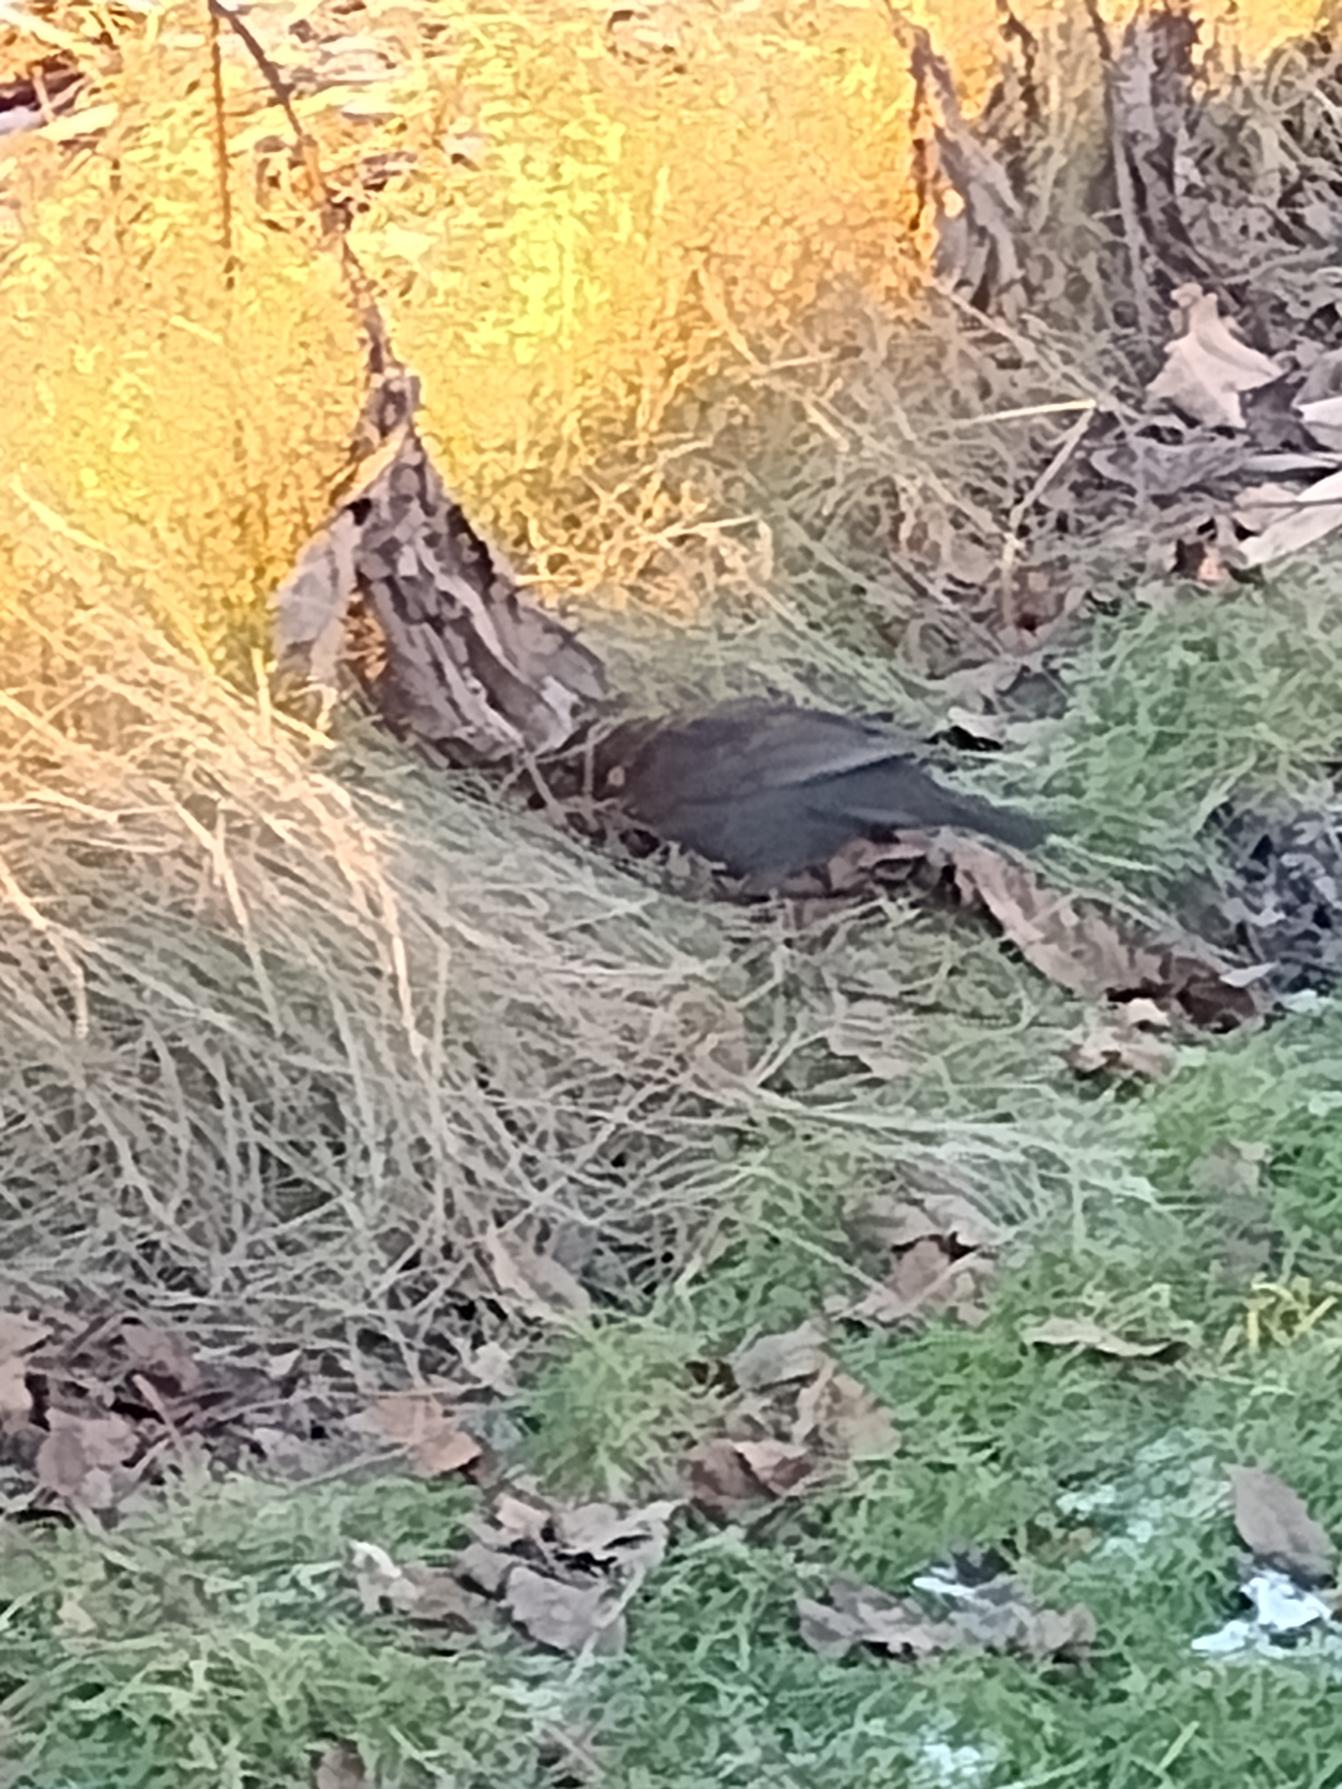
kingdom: Animalia
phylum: Chordata
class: Aves
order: Passeriformes
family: Turdidae
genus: Turdus
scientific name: Turdus merula
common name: Solsort
